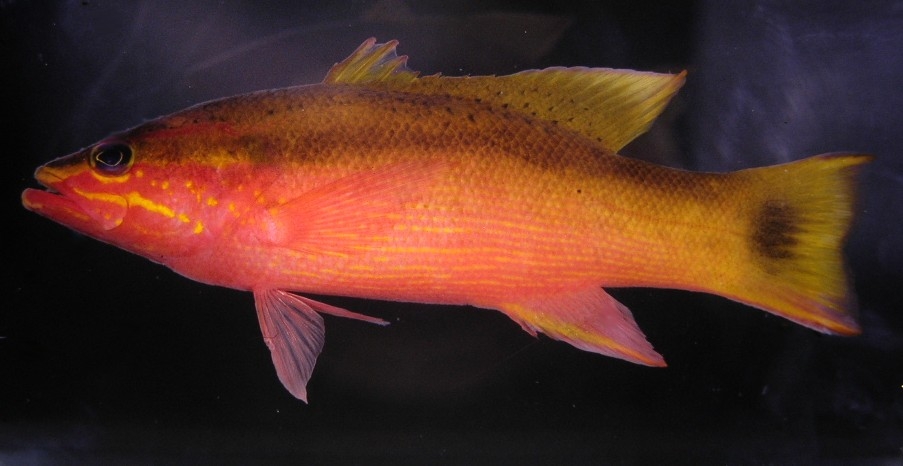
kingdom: Animalia
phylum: Chordata
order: Perciformes
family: Serranidae
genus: Liopropoma
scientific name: Liopropoma latifasciatum
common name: Blackstripe basslet
